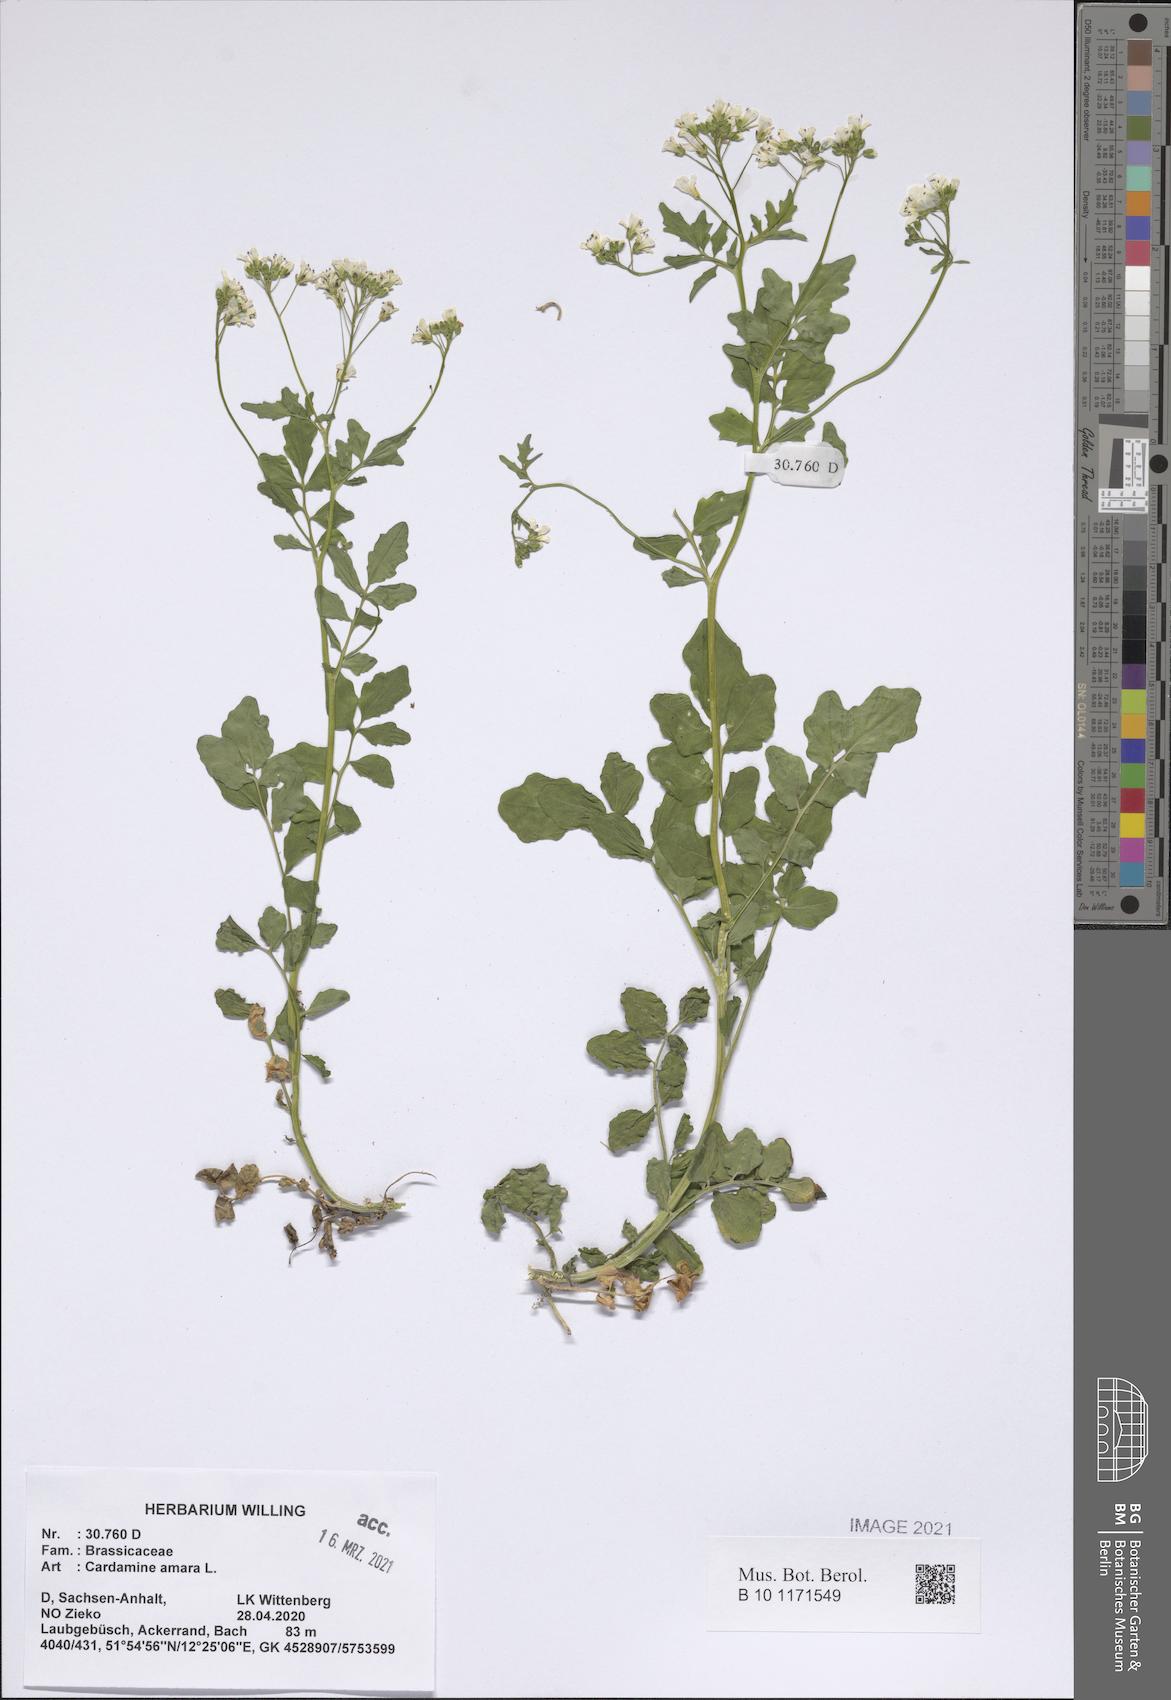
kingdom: Plantae
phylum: Tracheophyta
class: Magnoliopsida
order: Brassicales
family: Brassicaceae
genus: Cardamine
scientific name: Cardamine amara
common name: Large bitter-cress
